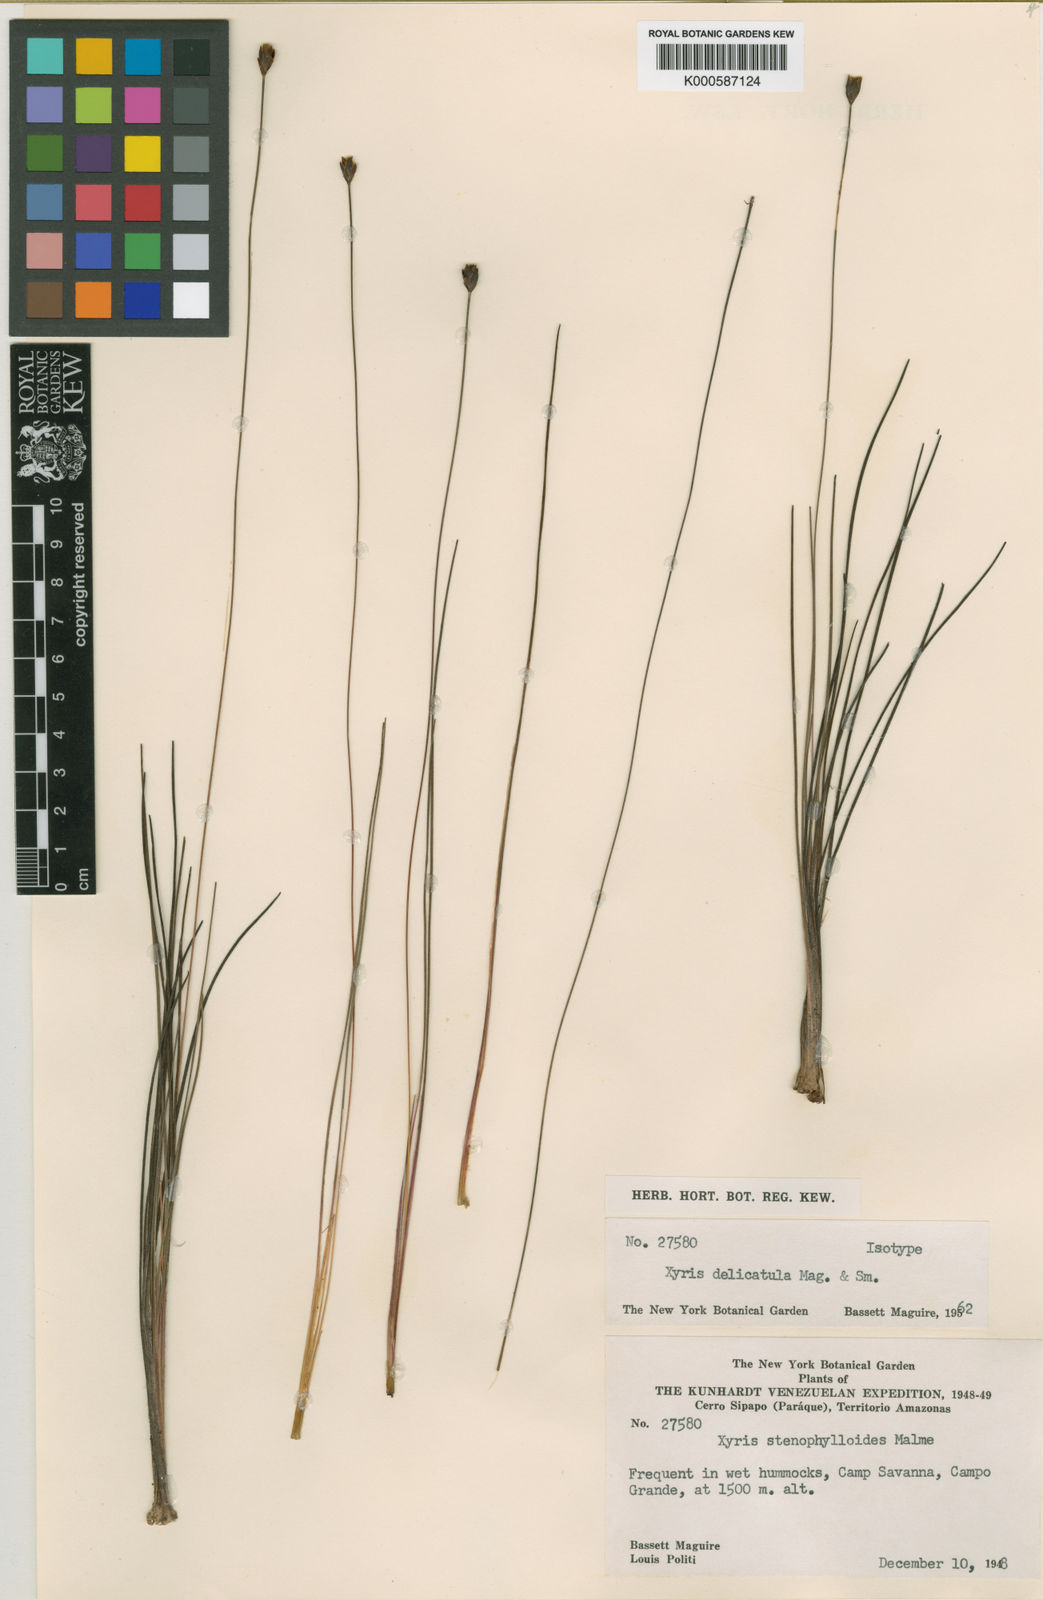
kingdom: Plantae
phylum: Tracheophyta
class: Liliopsida
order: Poales
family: Xyridaceae
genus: Xyris
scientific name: Xyris delicatula
